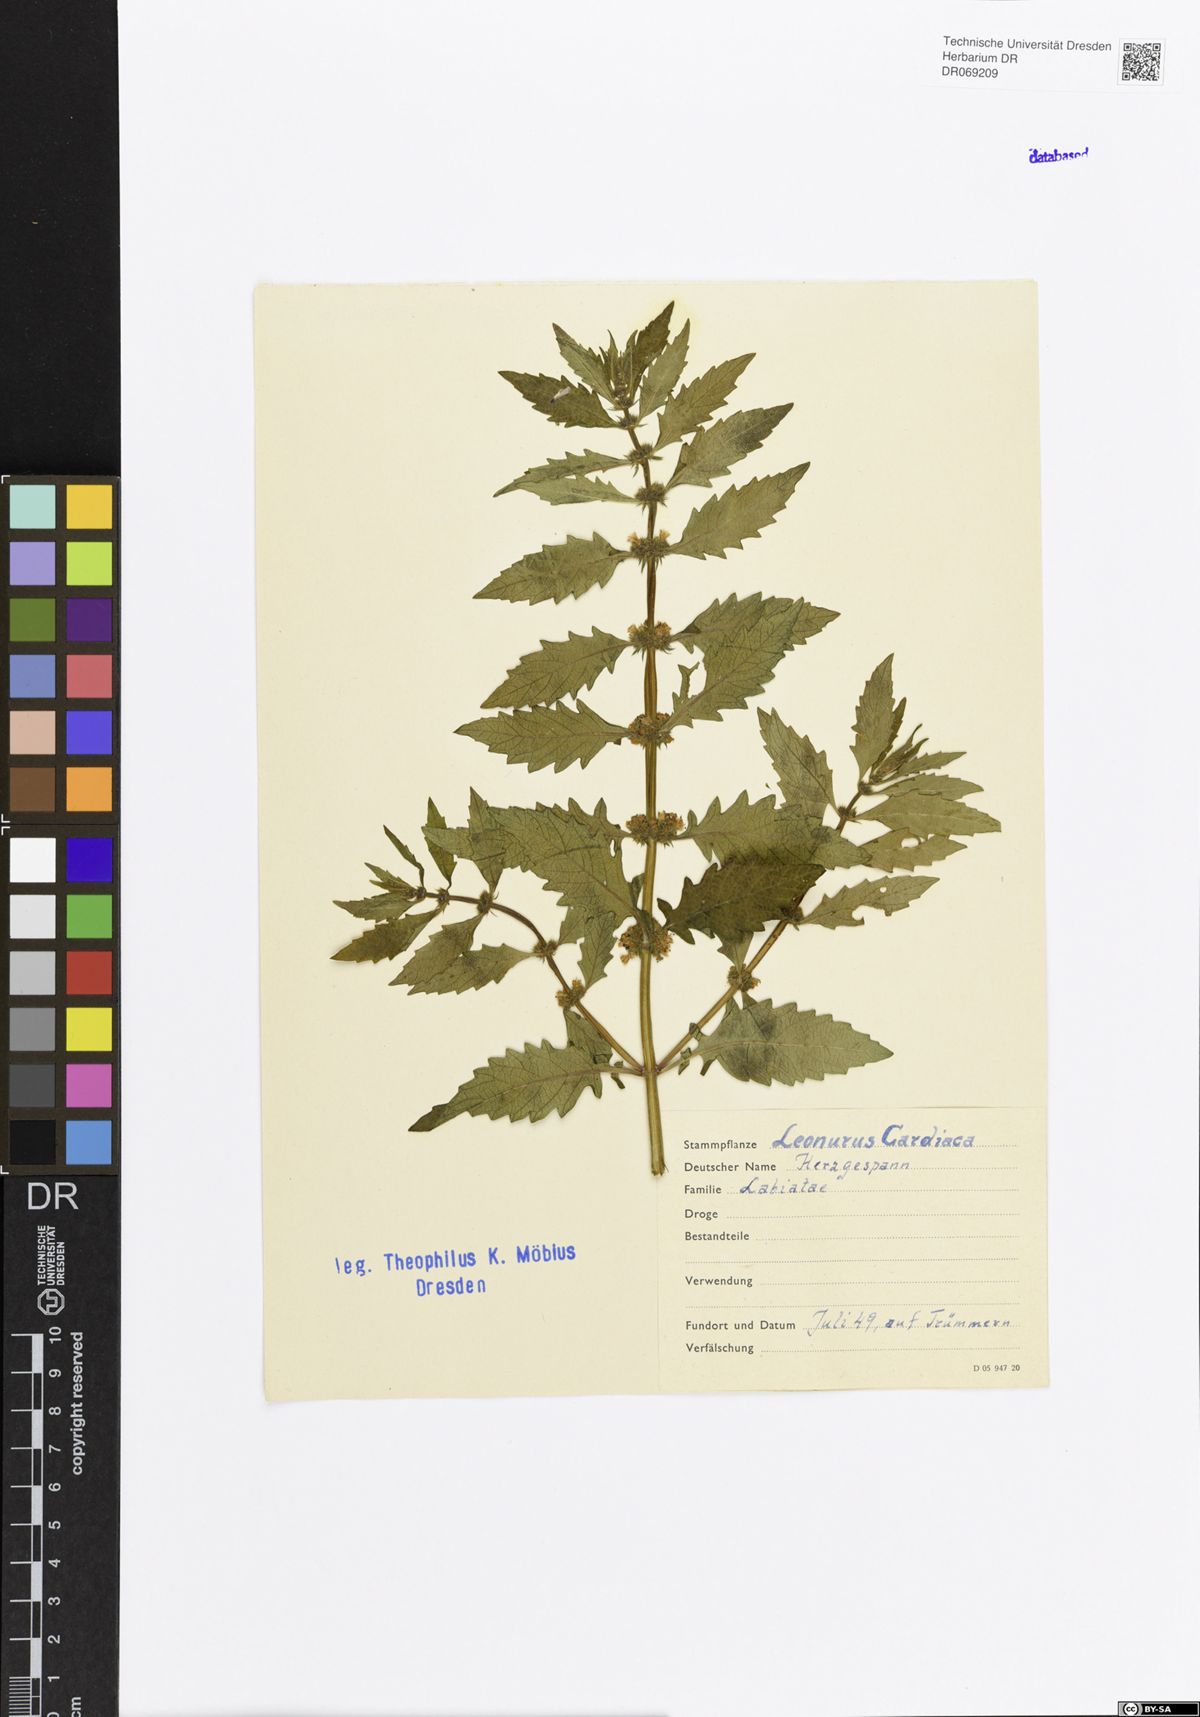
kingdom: Plantae
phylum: Tracheophyta
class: Magnoliopsida
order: Lamiales
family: Lamiaceae
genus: Leonurus
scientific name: Leonurus cardiaca
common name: Motherwort
